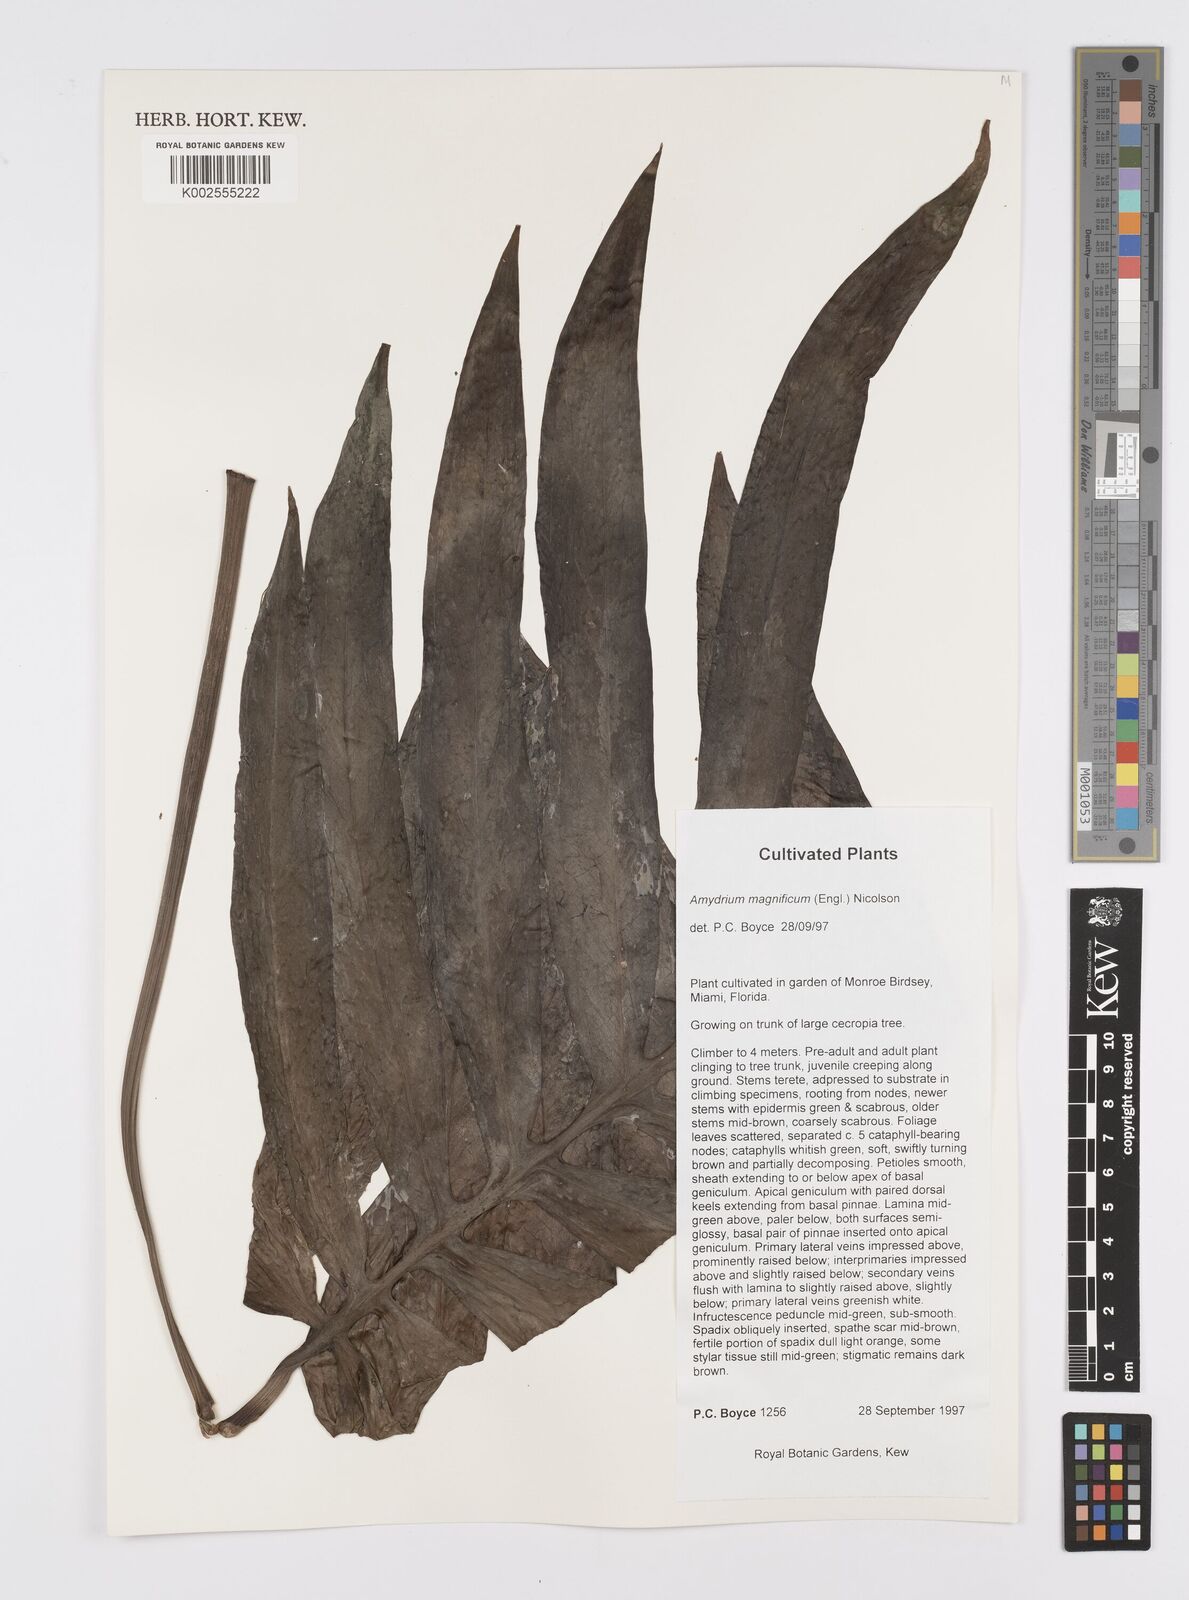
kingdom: Plantae
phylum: Tracheophyta
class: Liliopsida
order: Alismatales
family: Araceae
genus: Amydrium
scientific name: Amydrium zippelianum
